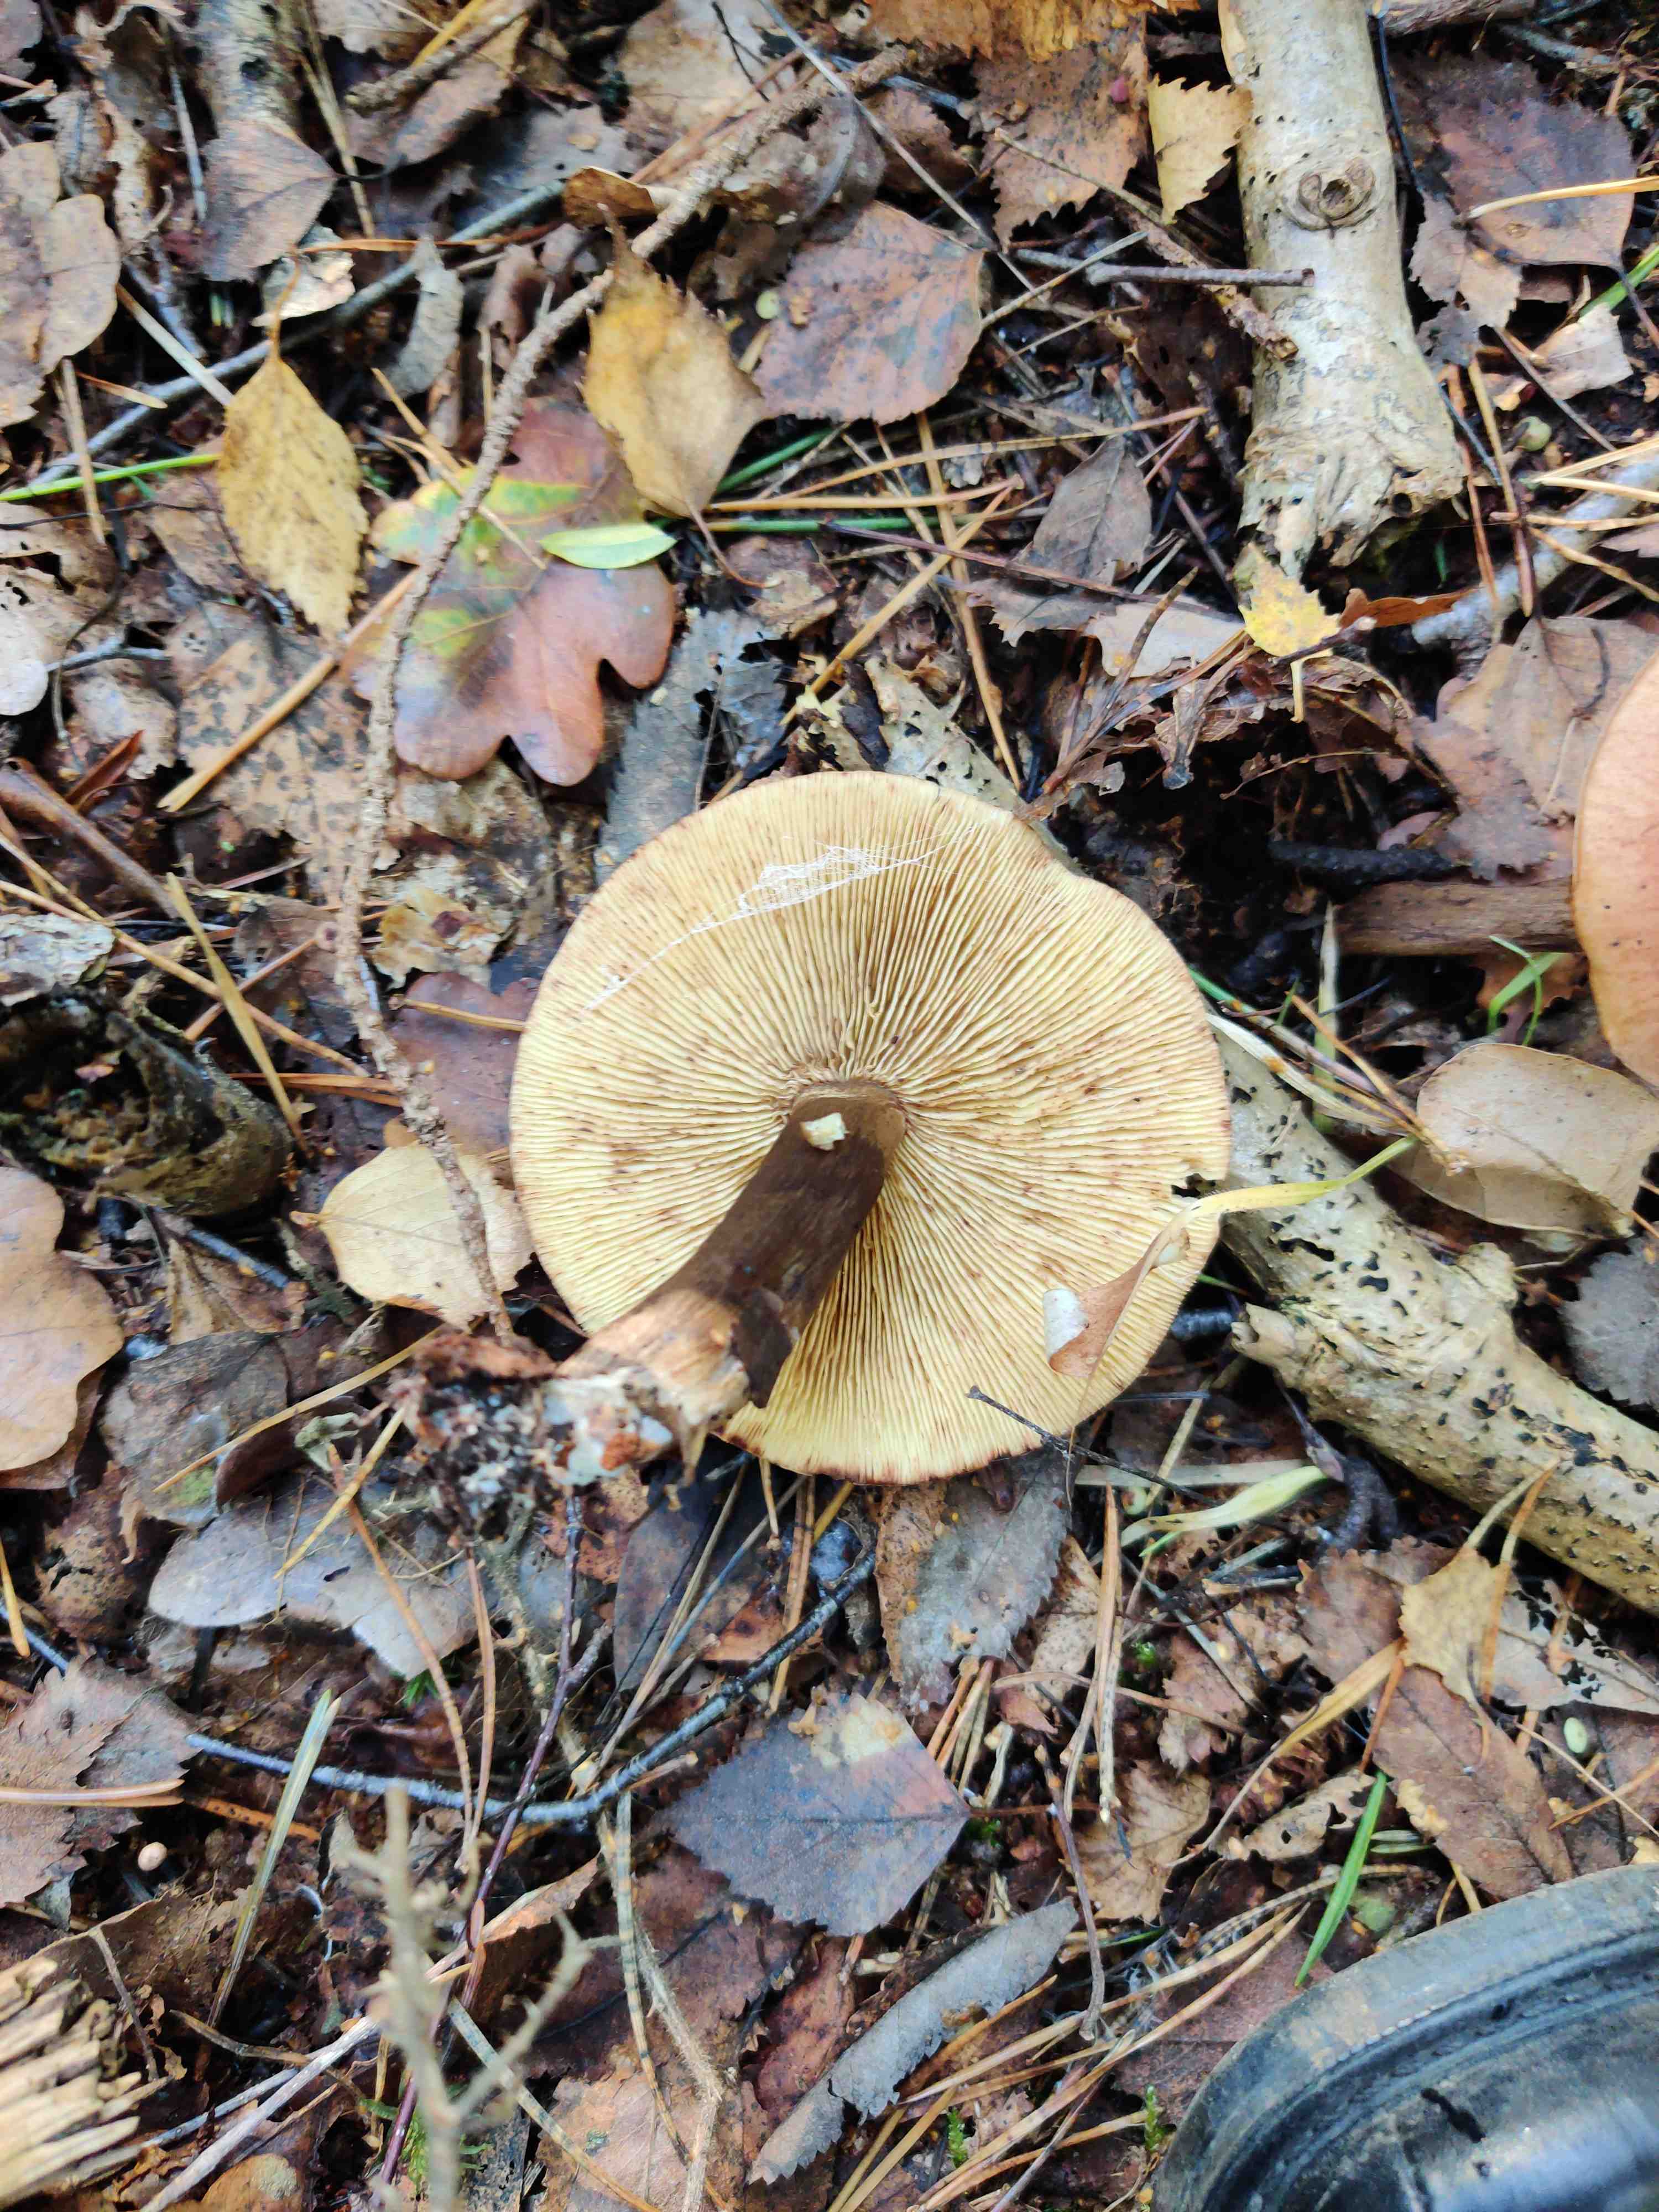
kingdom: Fungi
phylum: Basidiomycota
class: Agaricomycetes
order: Agaricales
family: Tricholomataceae
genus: Tricholoma
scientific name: Tricholoma fulvum
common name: birke-ridderhat
